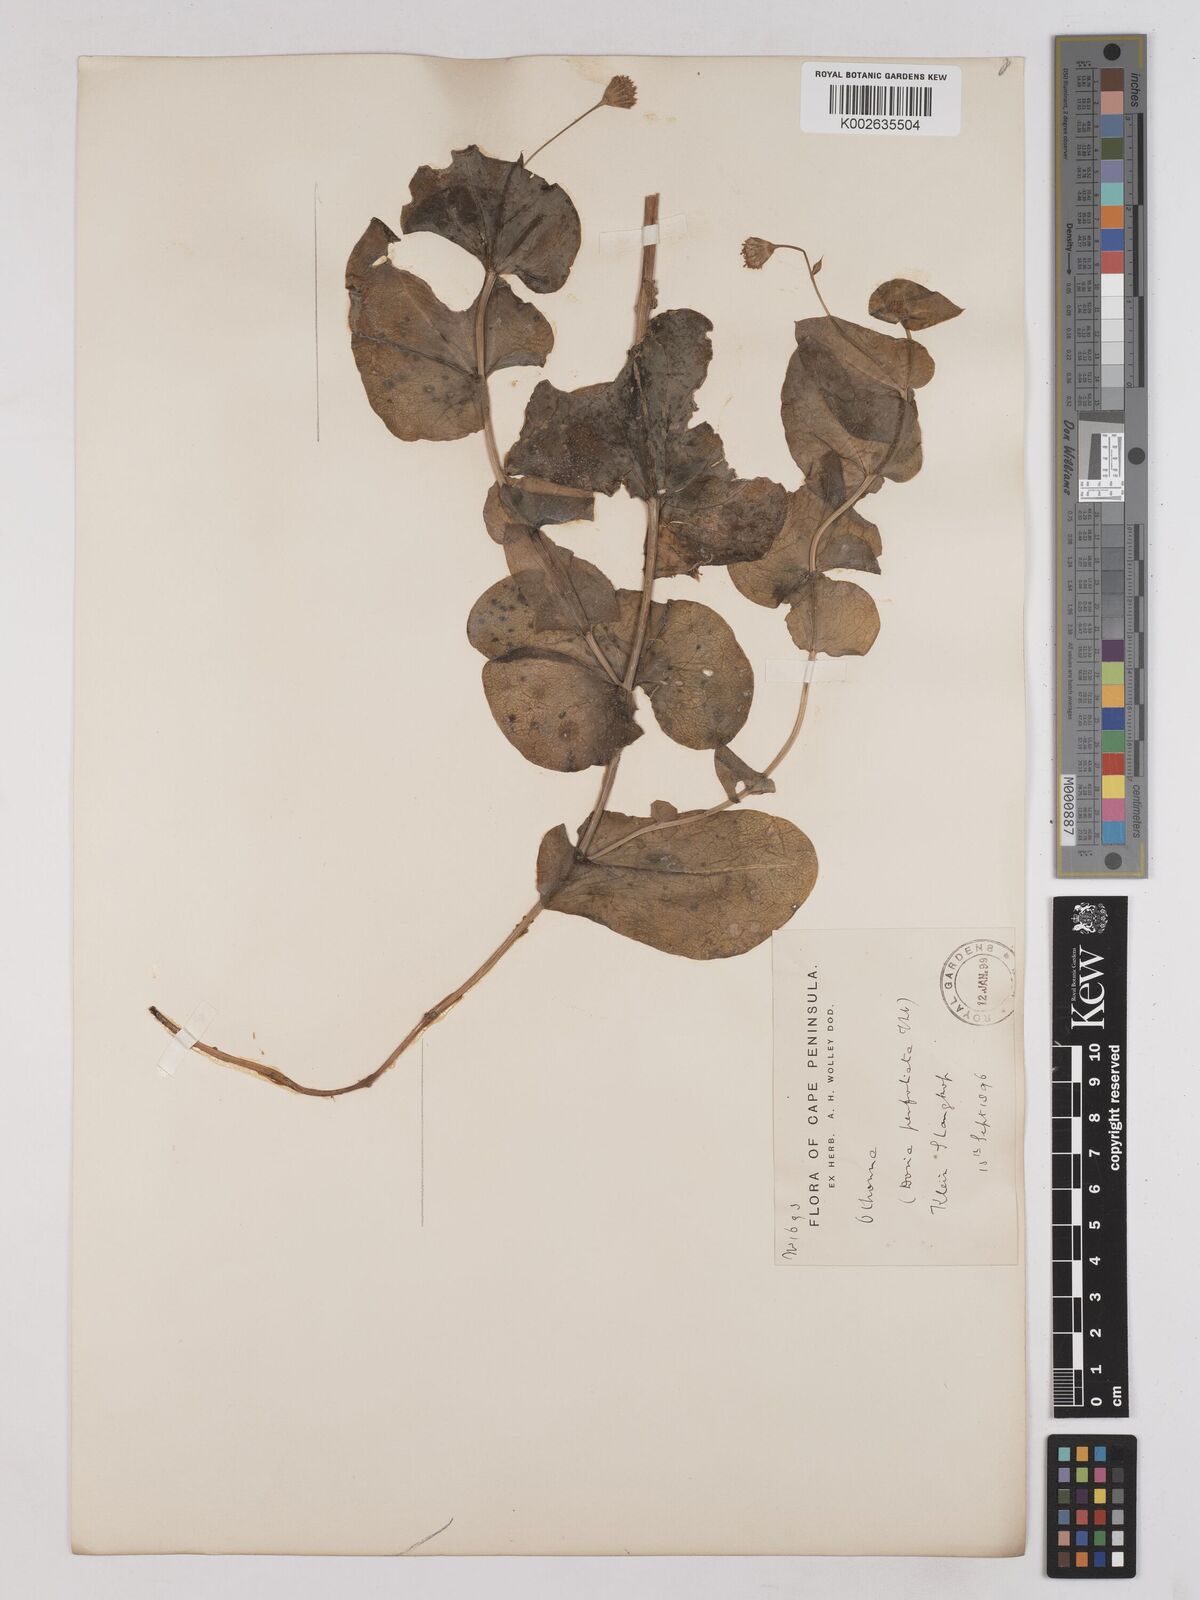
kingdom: Plantae
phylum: Tracheophyta
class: Magnoliopsida
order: Asterales
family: Asteraceae
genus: Othonna
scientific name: Othonna perfoliata
